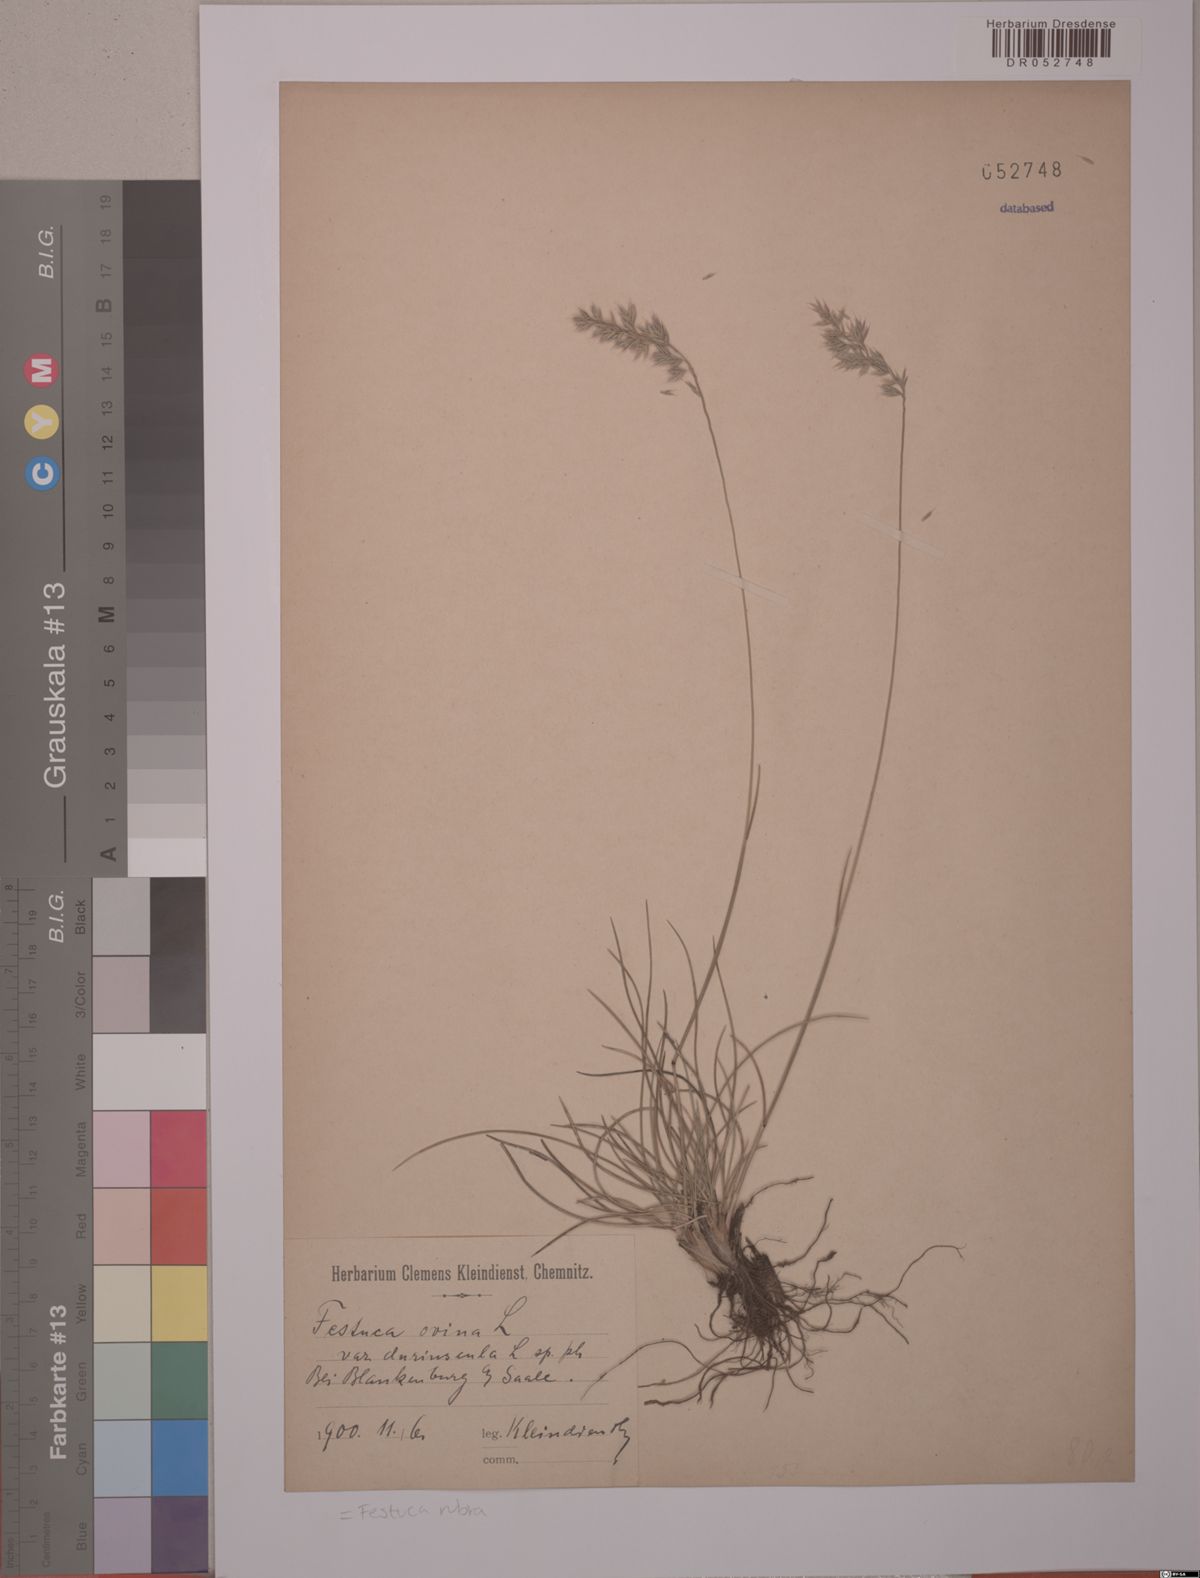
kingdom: Plantae
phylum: Tracheophyta
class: Liliopsida
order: Poales
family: Poaceae
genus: Festuca
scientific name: Festuca rubra
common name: Red fescue
